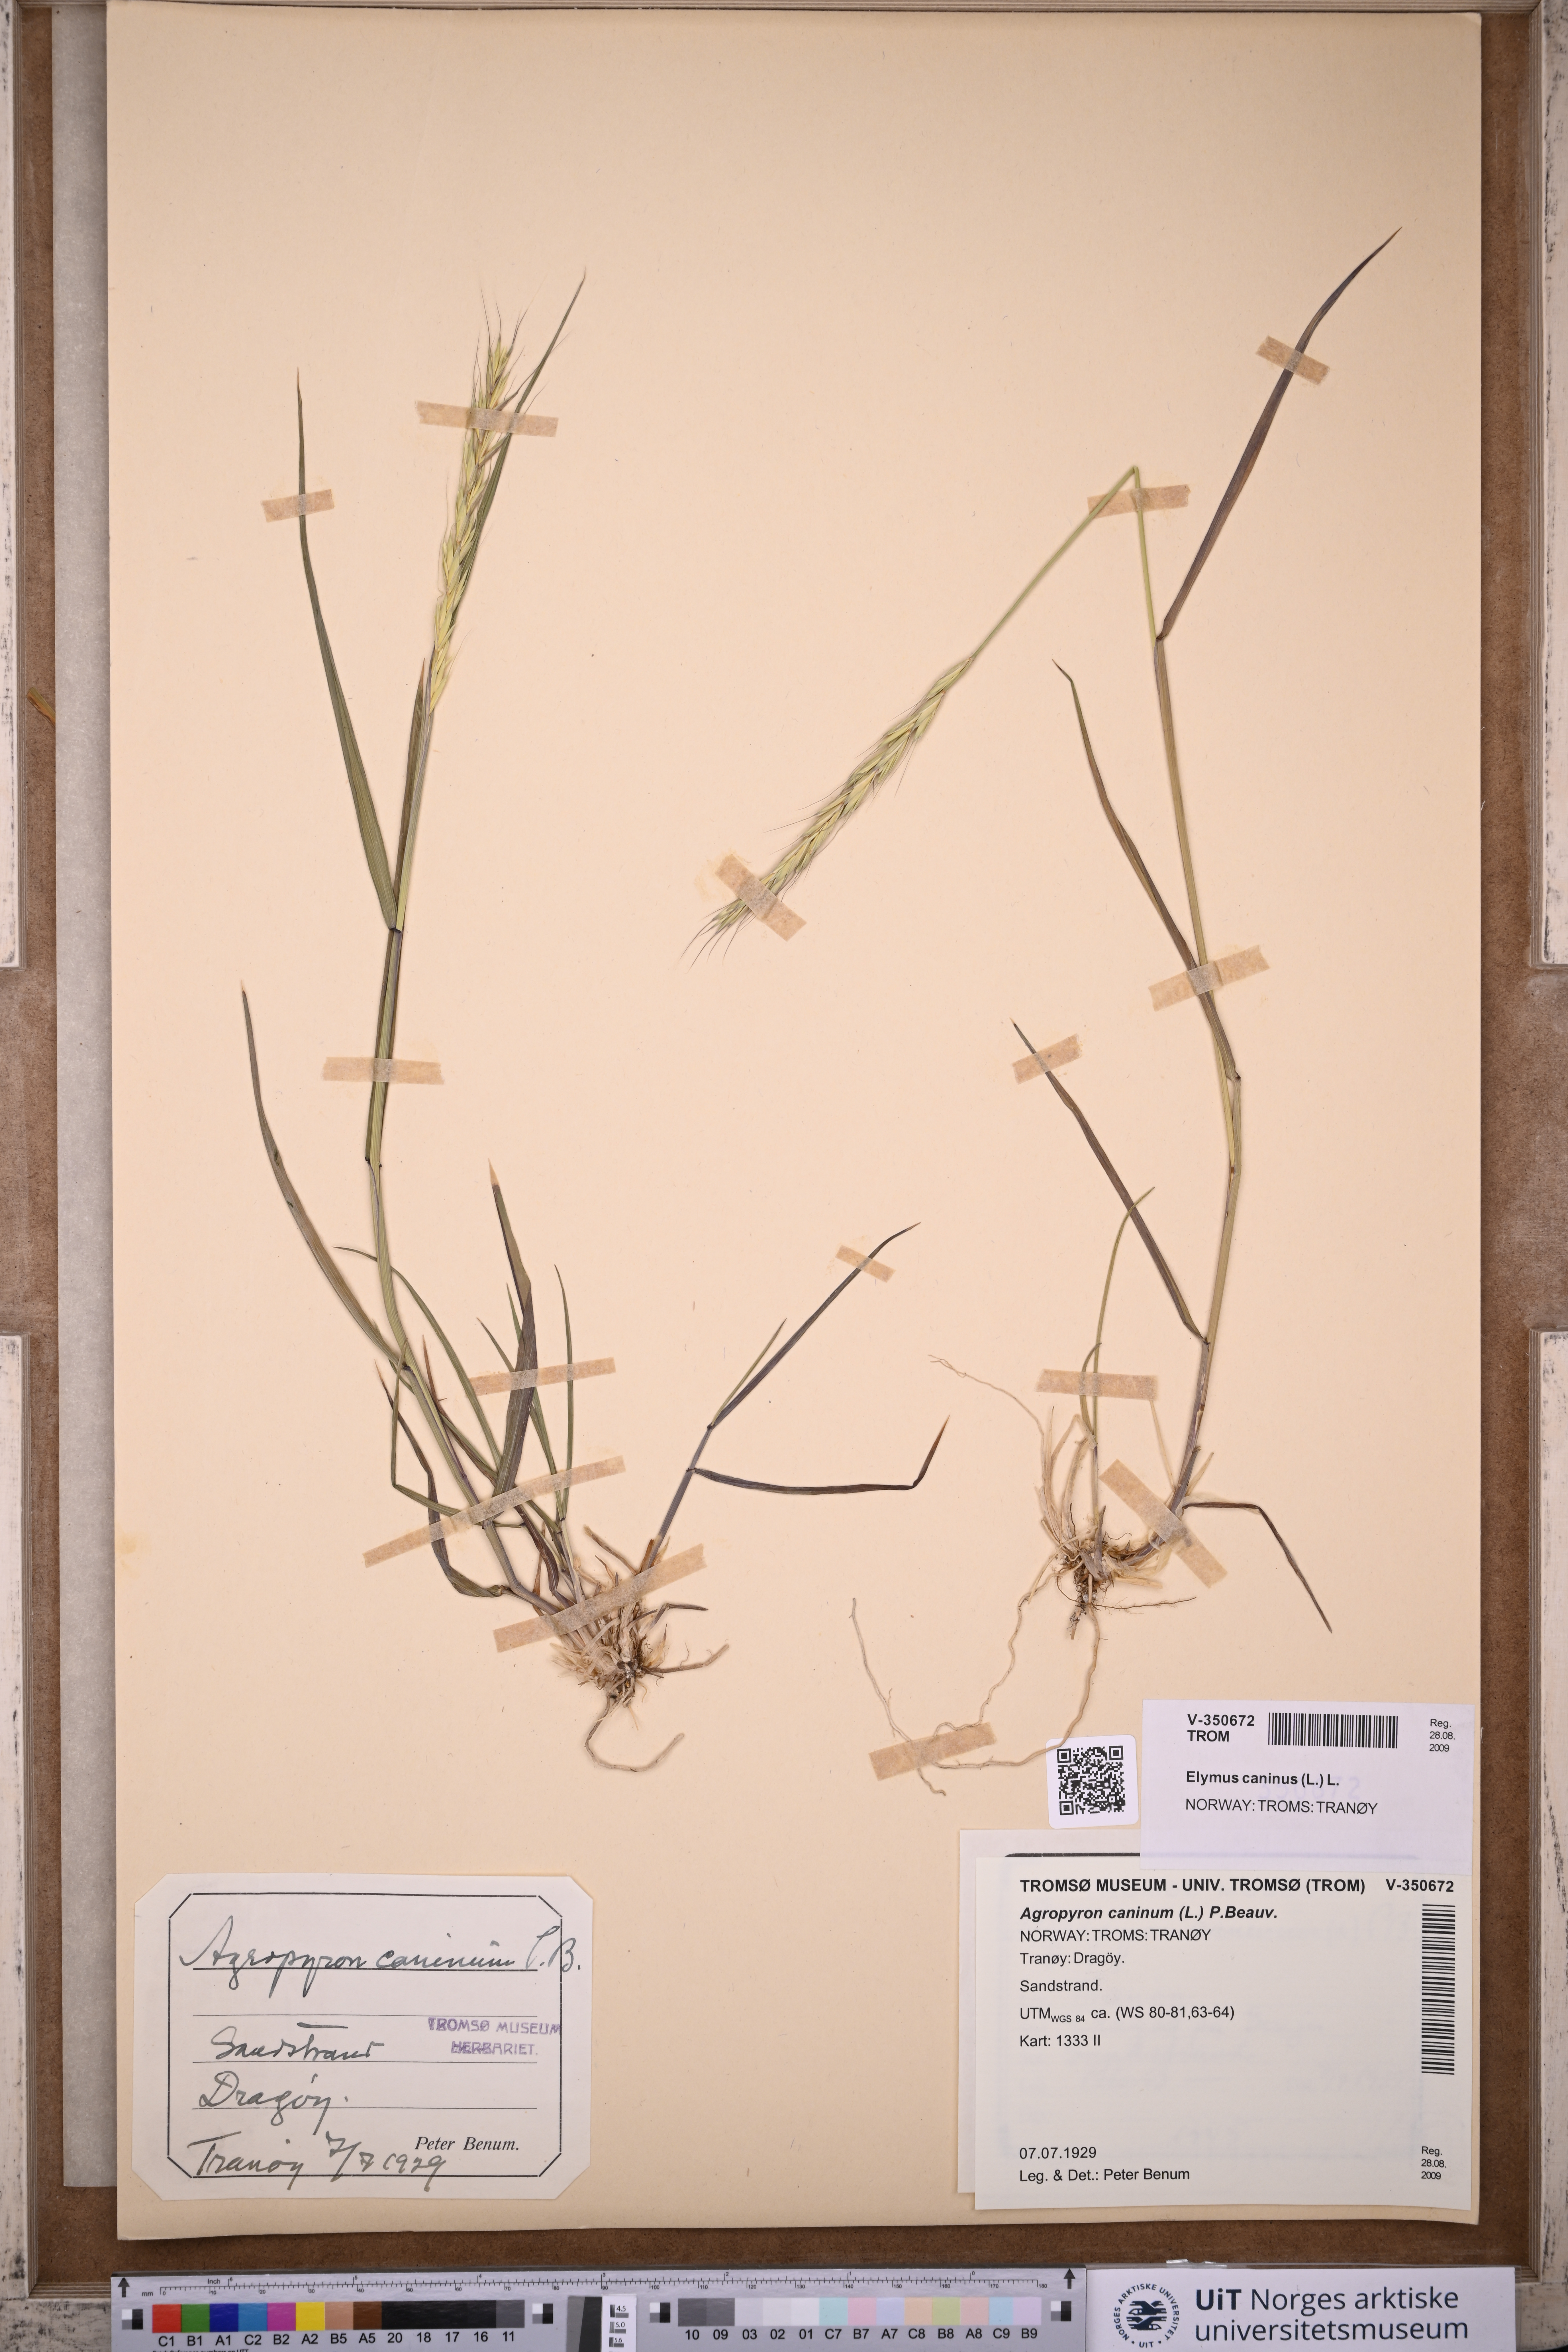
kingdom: Plantae
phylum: Tracheophyta
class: Liliopsida
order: Poales
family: Poaceae
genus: Elymus
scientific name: Elymus caninus
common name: Bearded couch
